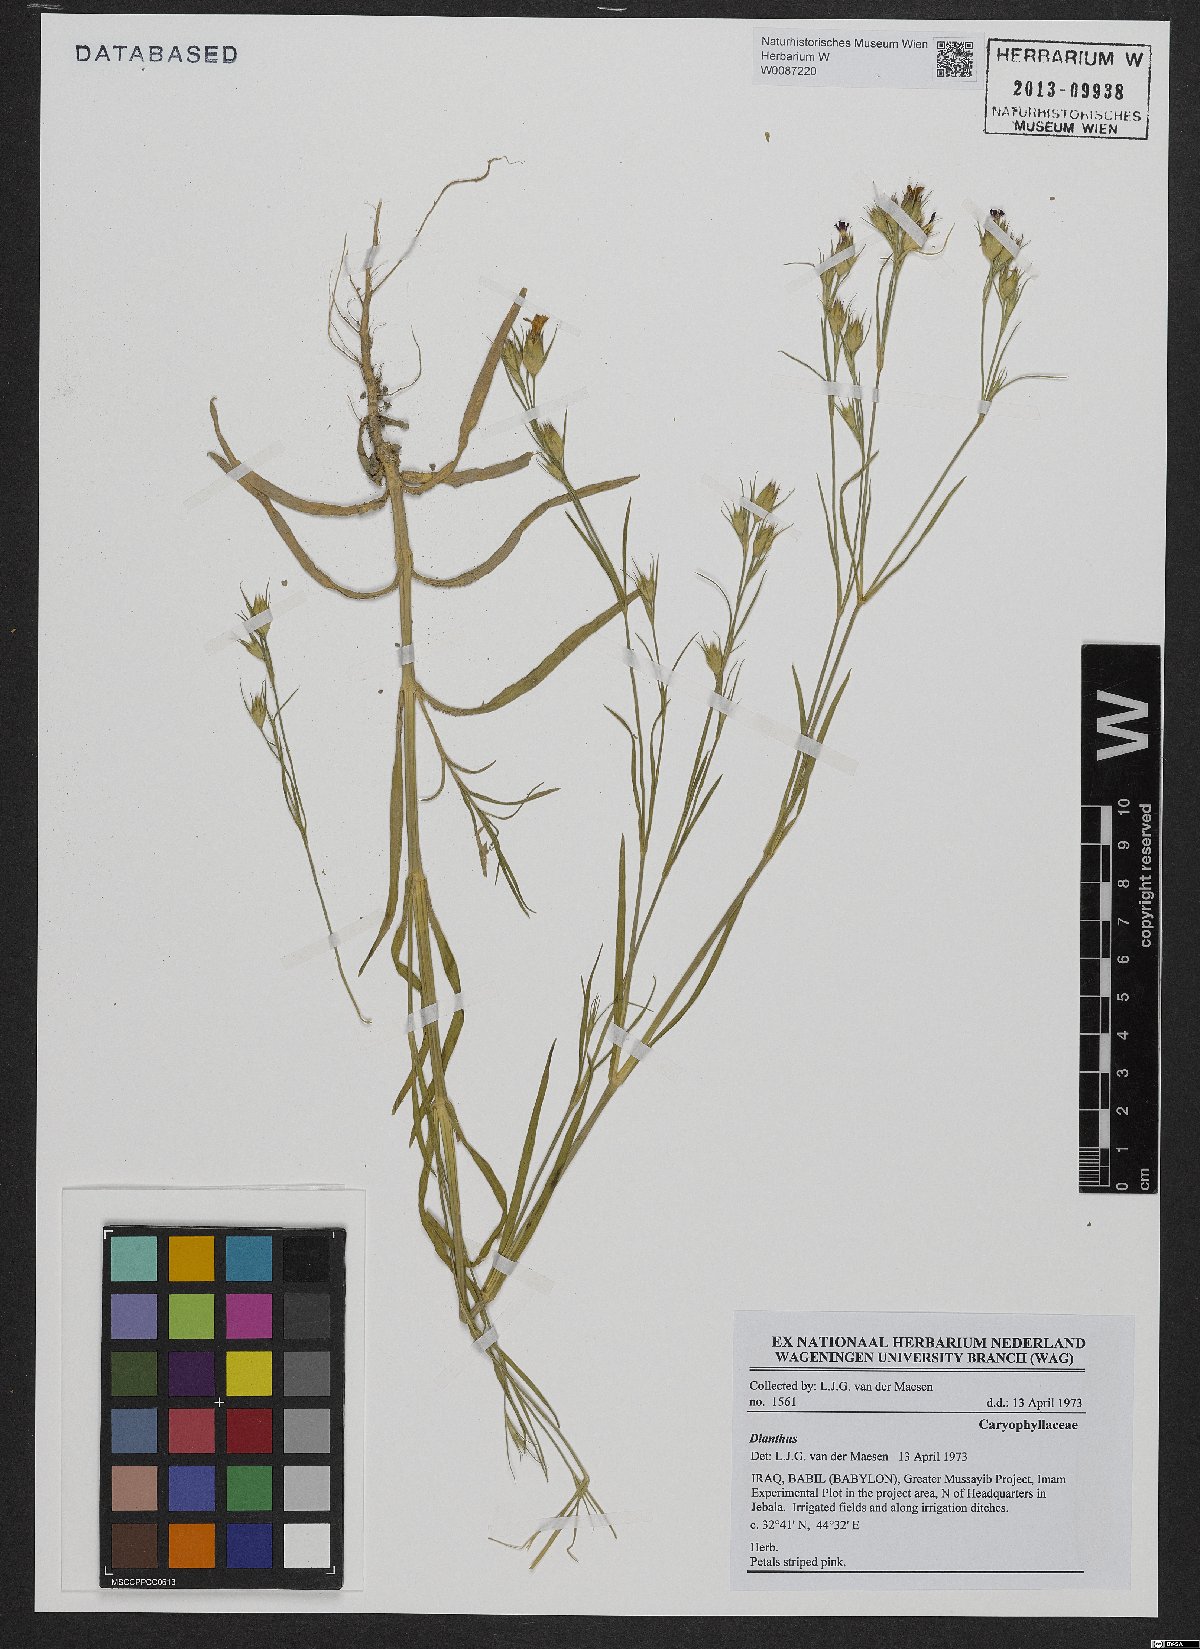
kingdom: Plantae
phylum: Tracheophyta
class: Magnoliopsida
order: Caryophyllales
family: Caryophyllaceae
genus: Dianthus
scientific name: Dianthus
